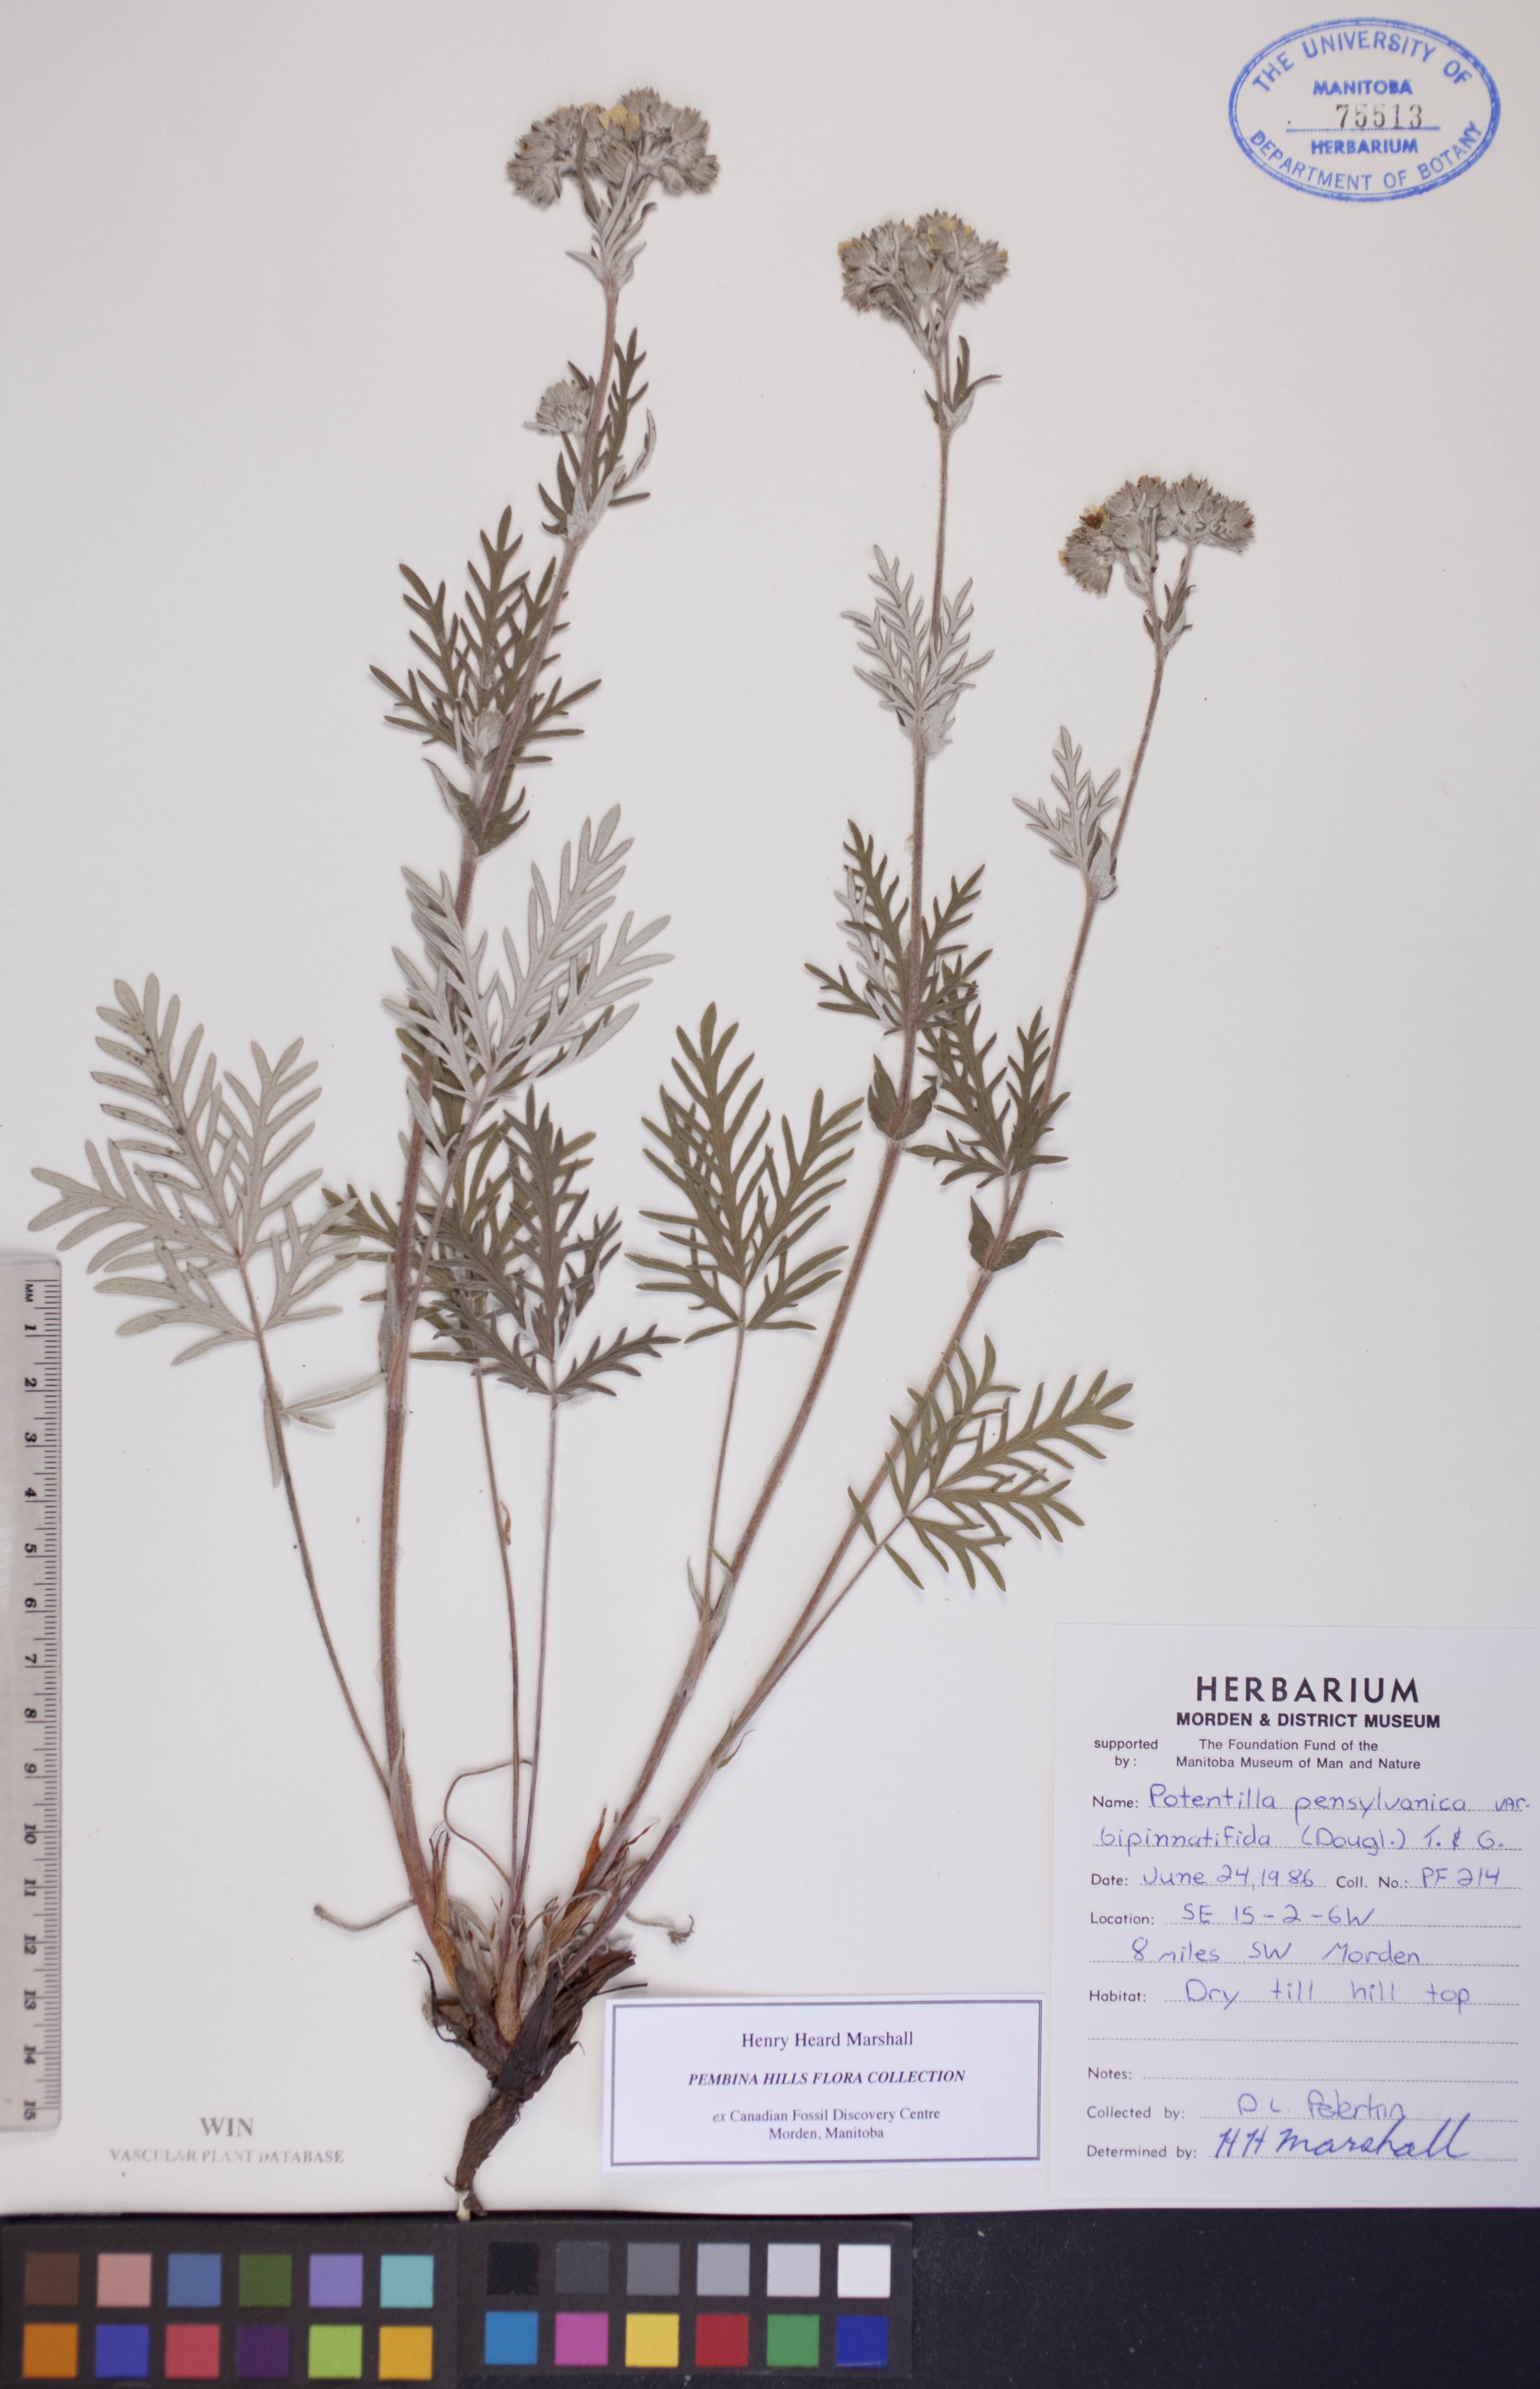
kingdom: Plantae
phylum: Tracheophyta
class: Magnoliopsida
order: Rosales
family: Rosaceae
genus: Potentilla
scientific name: Potentilla bipinnatifida
